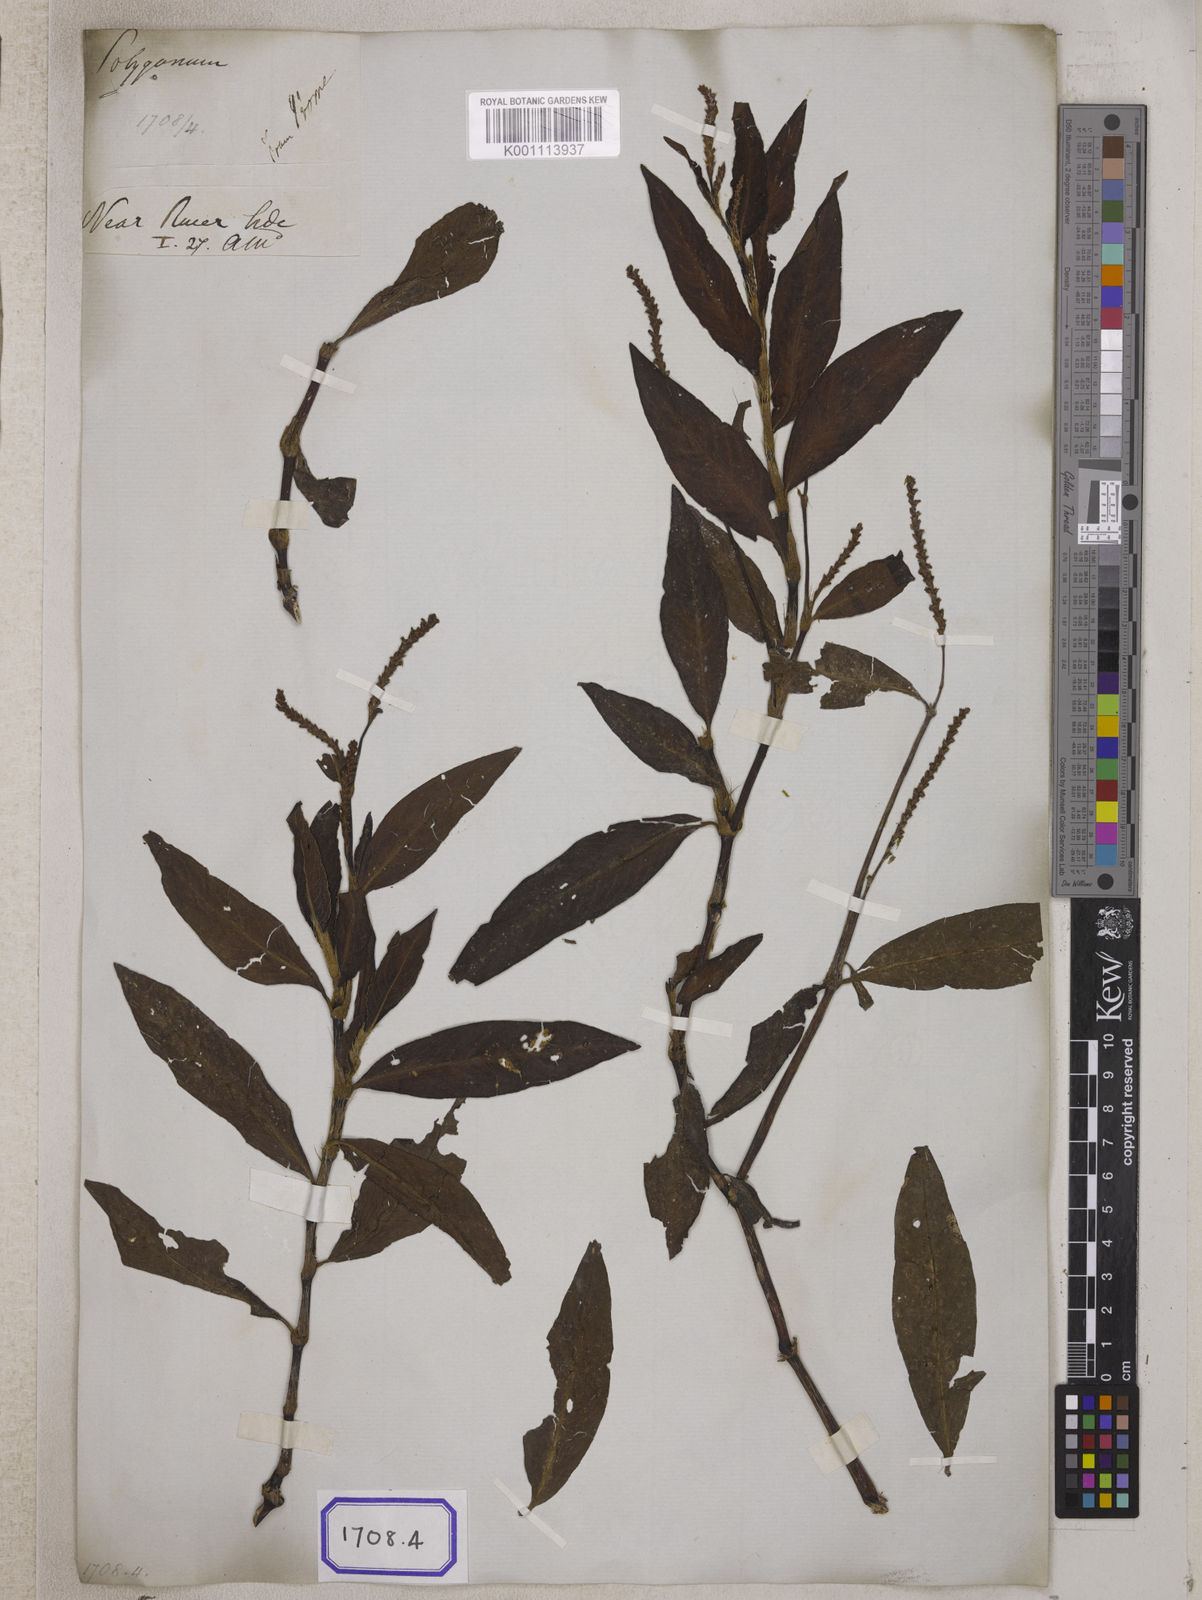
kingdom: Plantae
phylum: Tracheophyta
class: Magnoliopsida
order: Caryophyllales
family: Polygonaceae
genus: Persicaria
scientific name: Persicaria barbata
